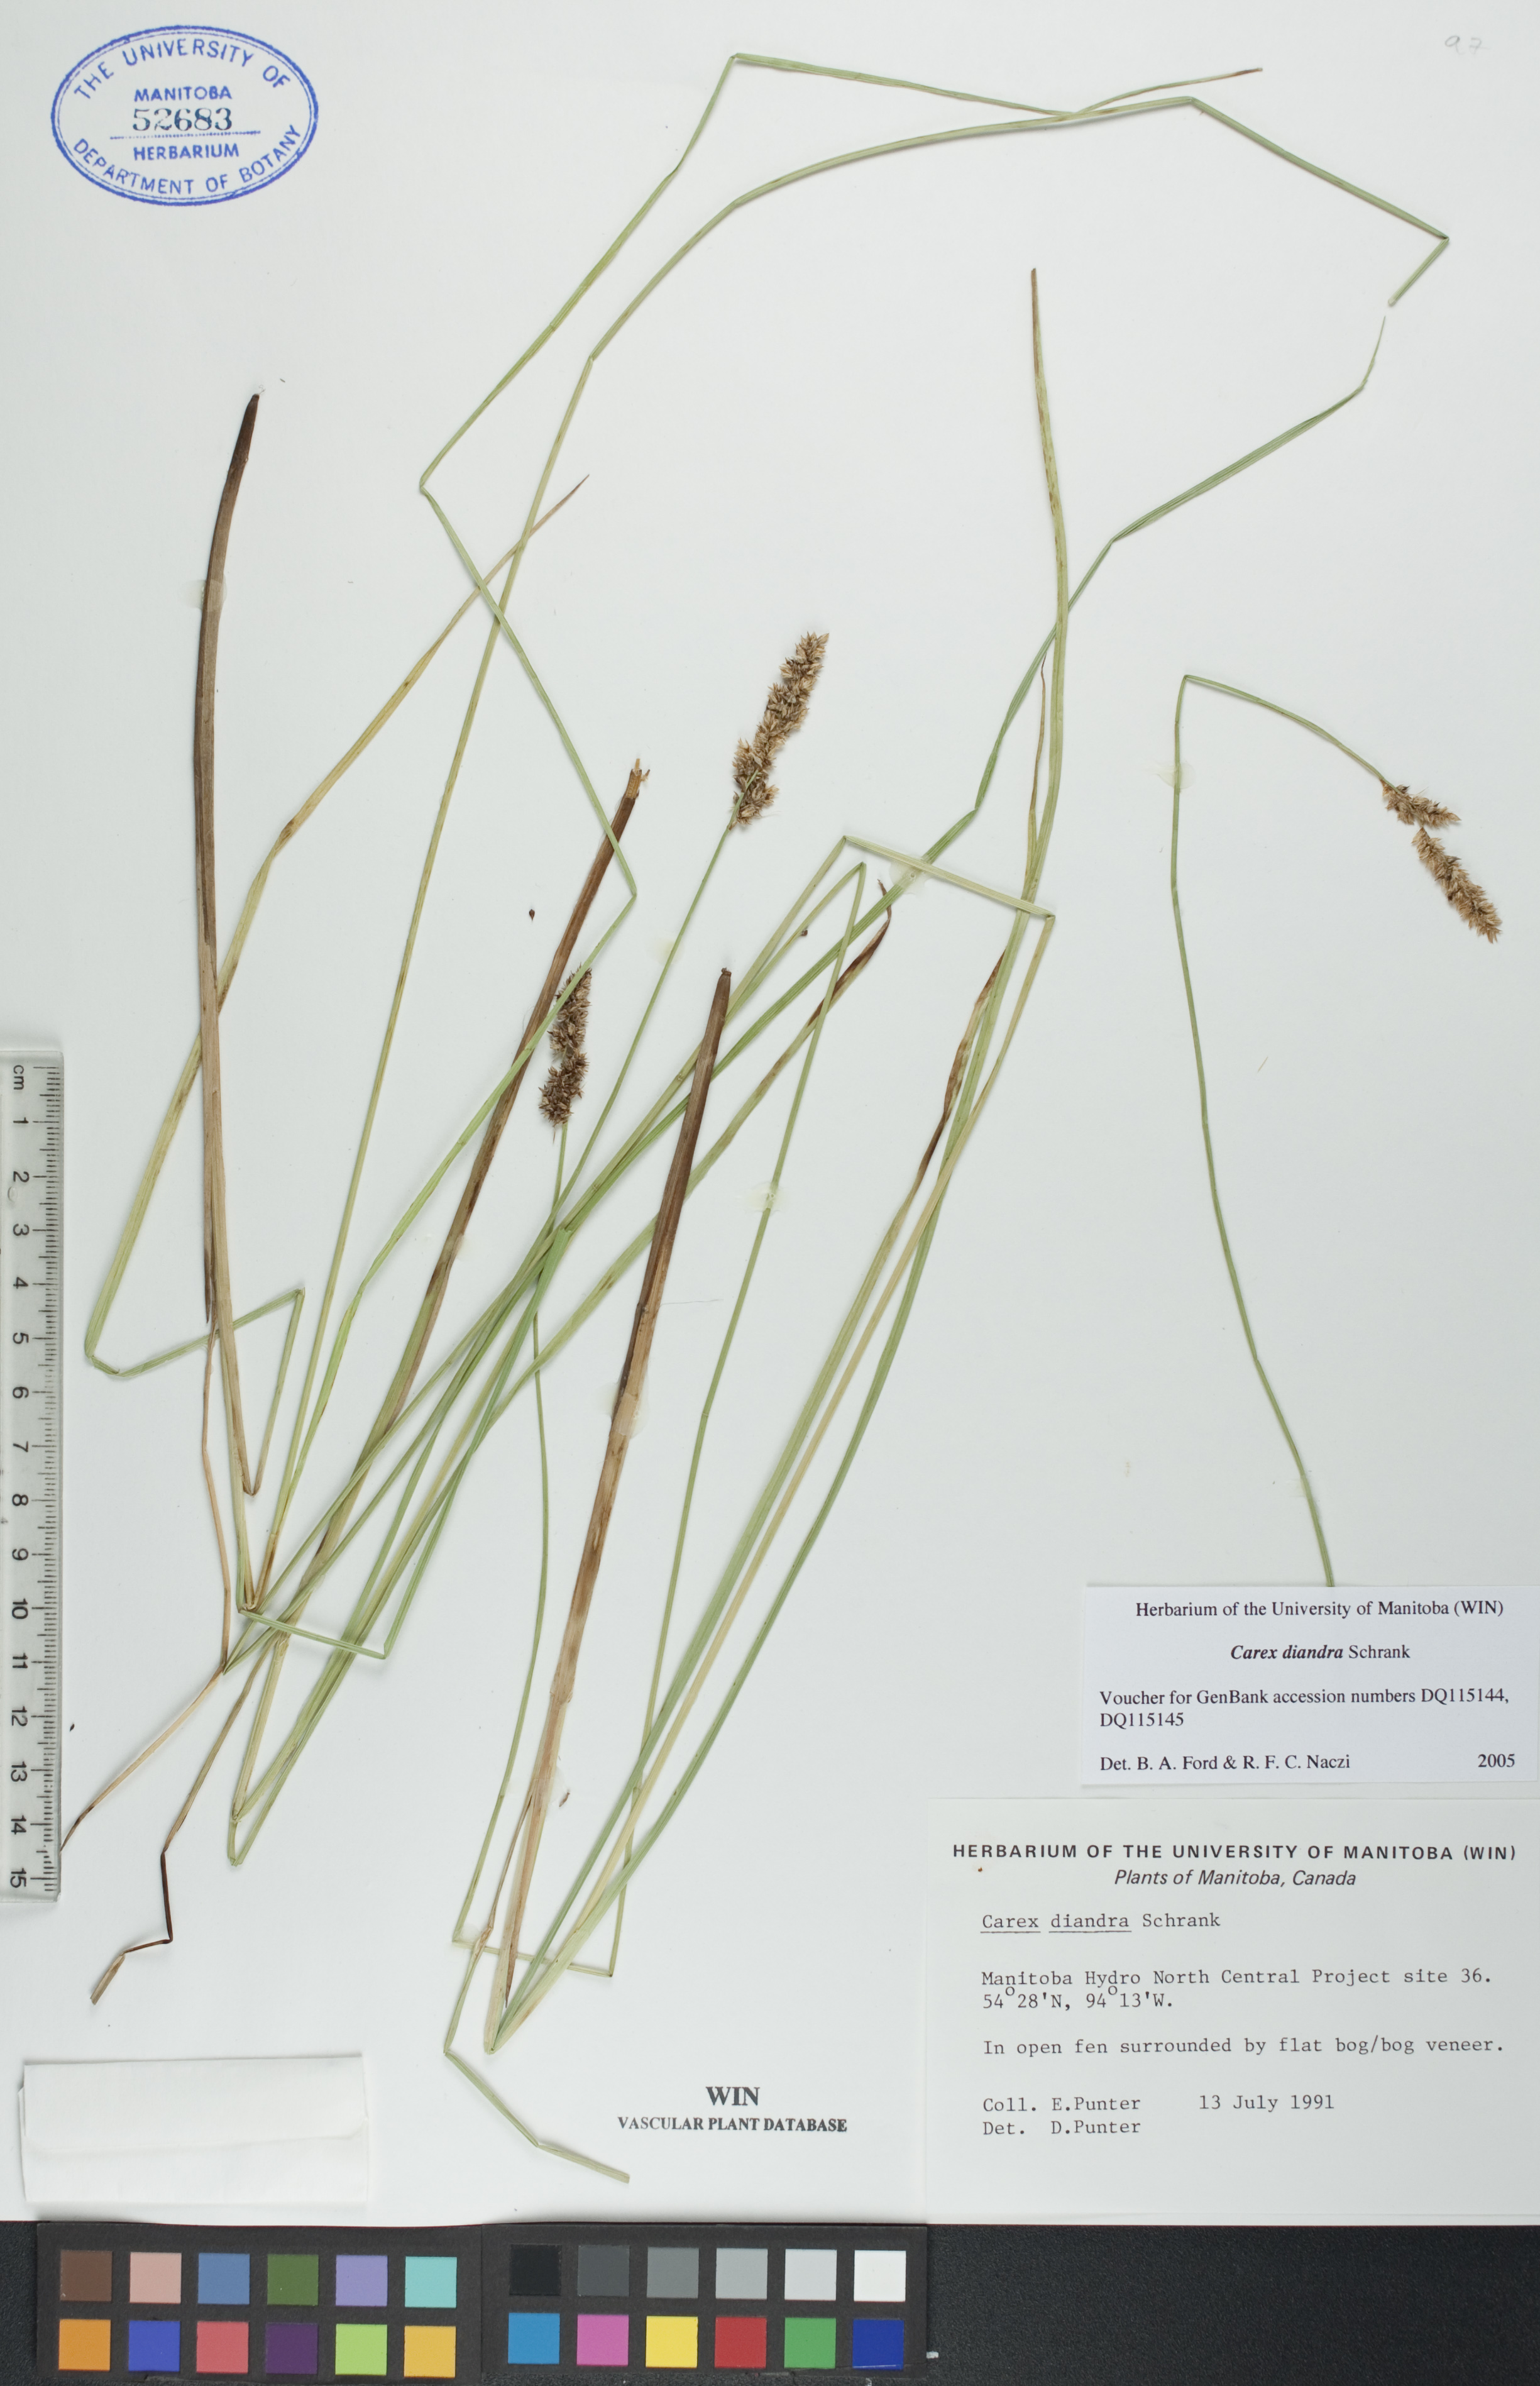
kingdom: Plantae
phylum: Tracheophyta
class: Liliopsida
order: Poales
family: Cyperaceae
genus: Carex
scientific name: Carex diandra
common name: Lesser tussock-sedge
